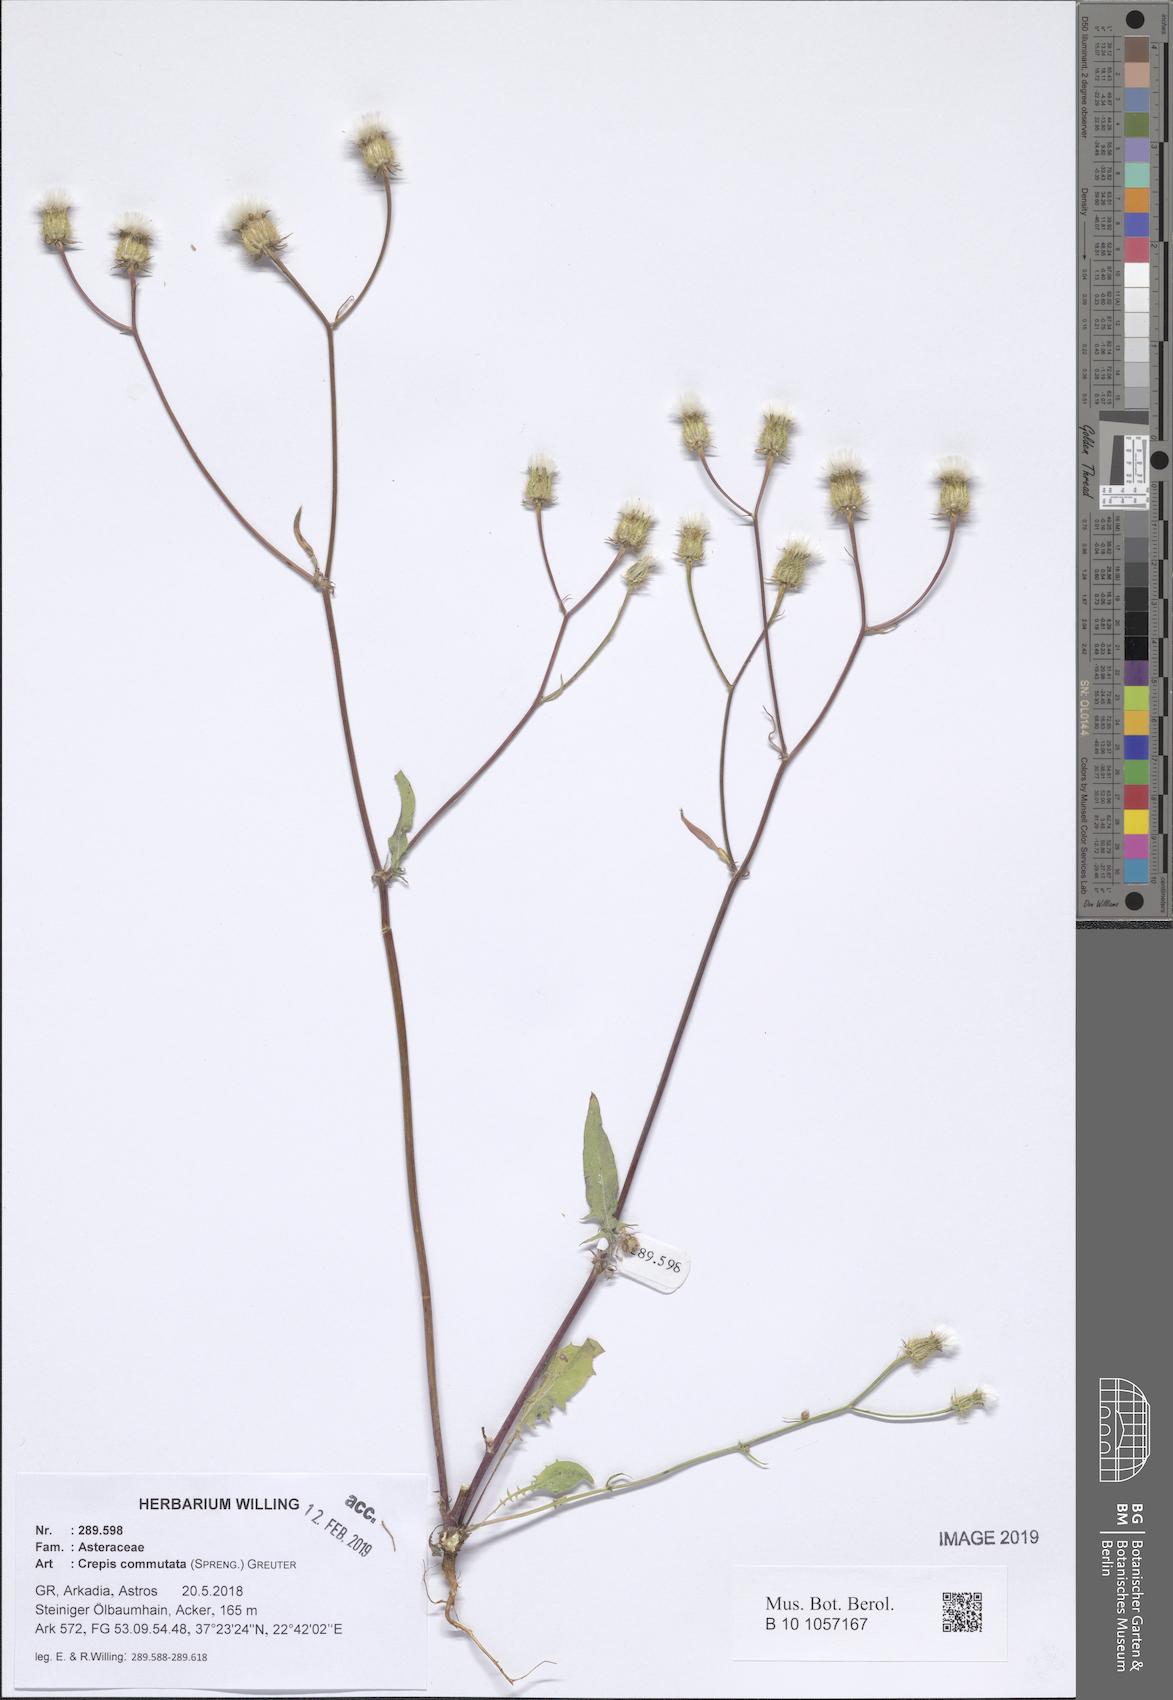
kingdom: Plantae
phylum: Tracheophyta
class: Magnoliopsida
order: Asterales
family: Asteraceae
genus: Crepis
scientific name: Crepis commutata
